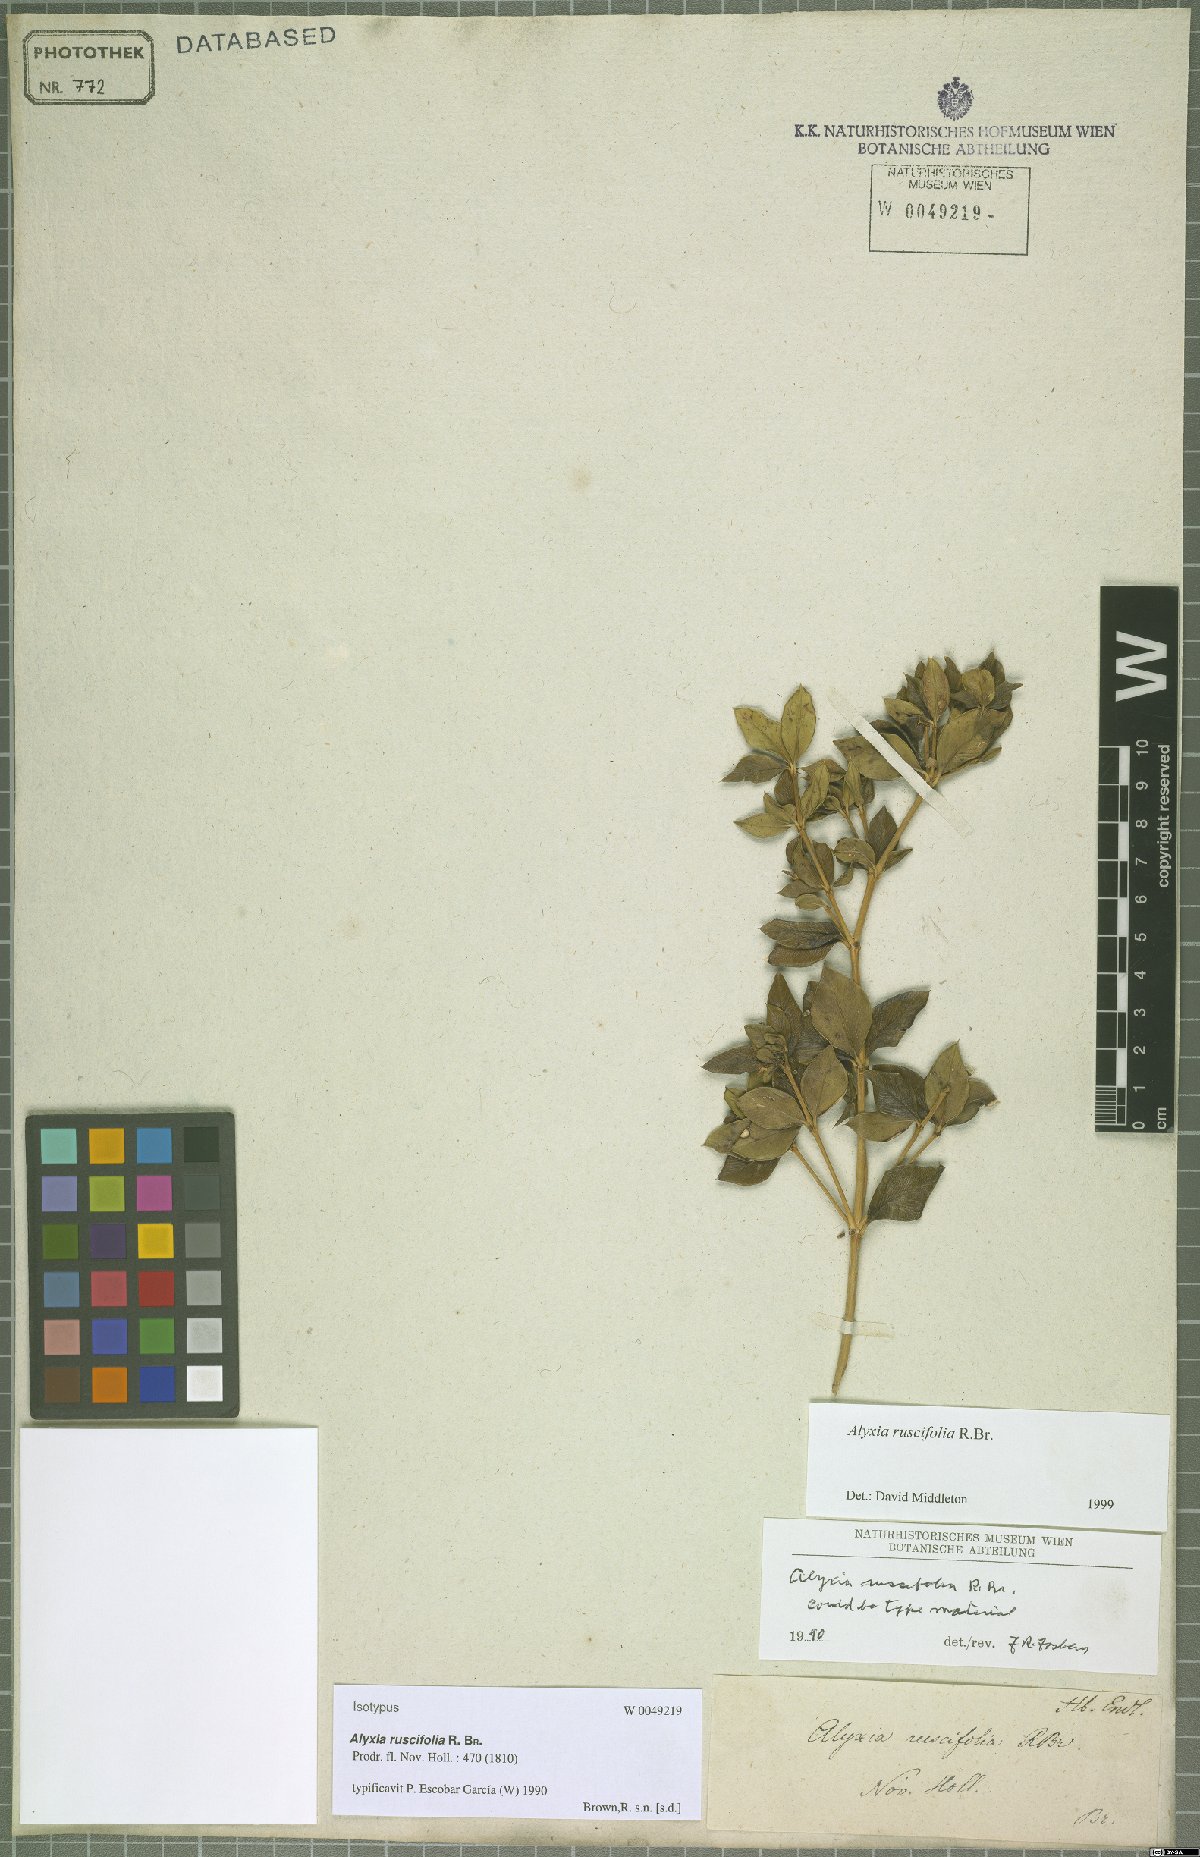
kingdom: Plantae
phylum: Tracheophyta
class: Magnoliopsida
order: Gentianales
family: Apocynaceae
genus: Alyxia
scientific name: Alyxia ruscifolia
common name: Chainfruit
